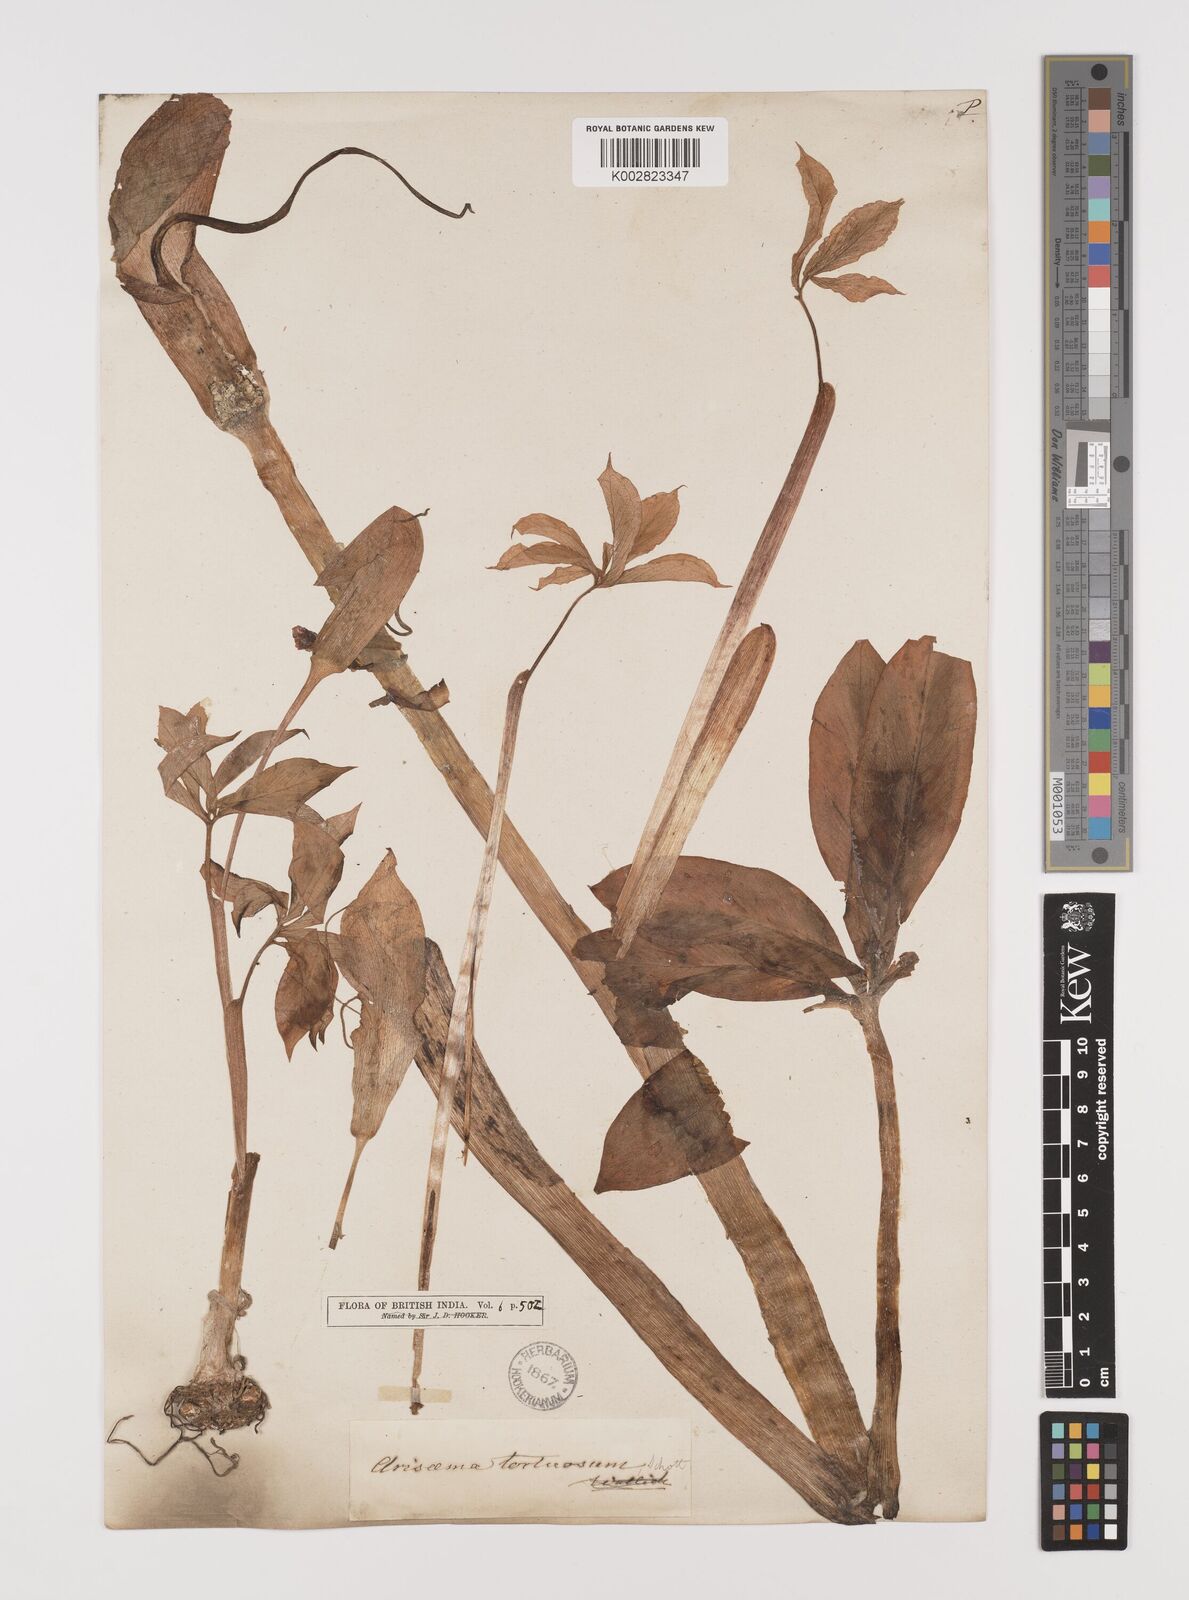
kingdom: Plantae
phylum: Tracheophyta
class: Liliopsida
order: Alismatales
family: Araceae
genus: Arisaema
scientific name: Arisaema tortuosum
